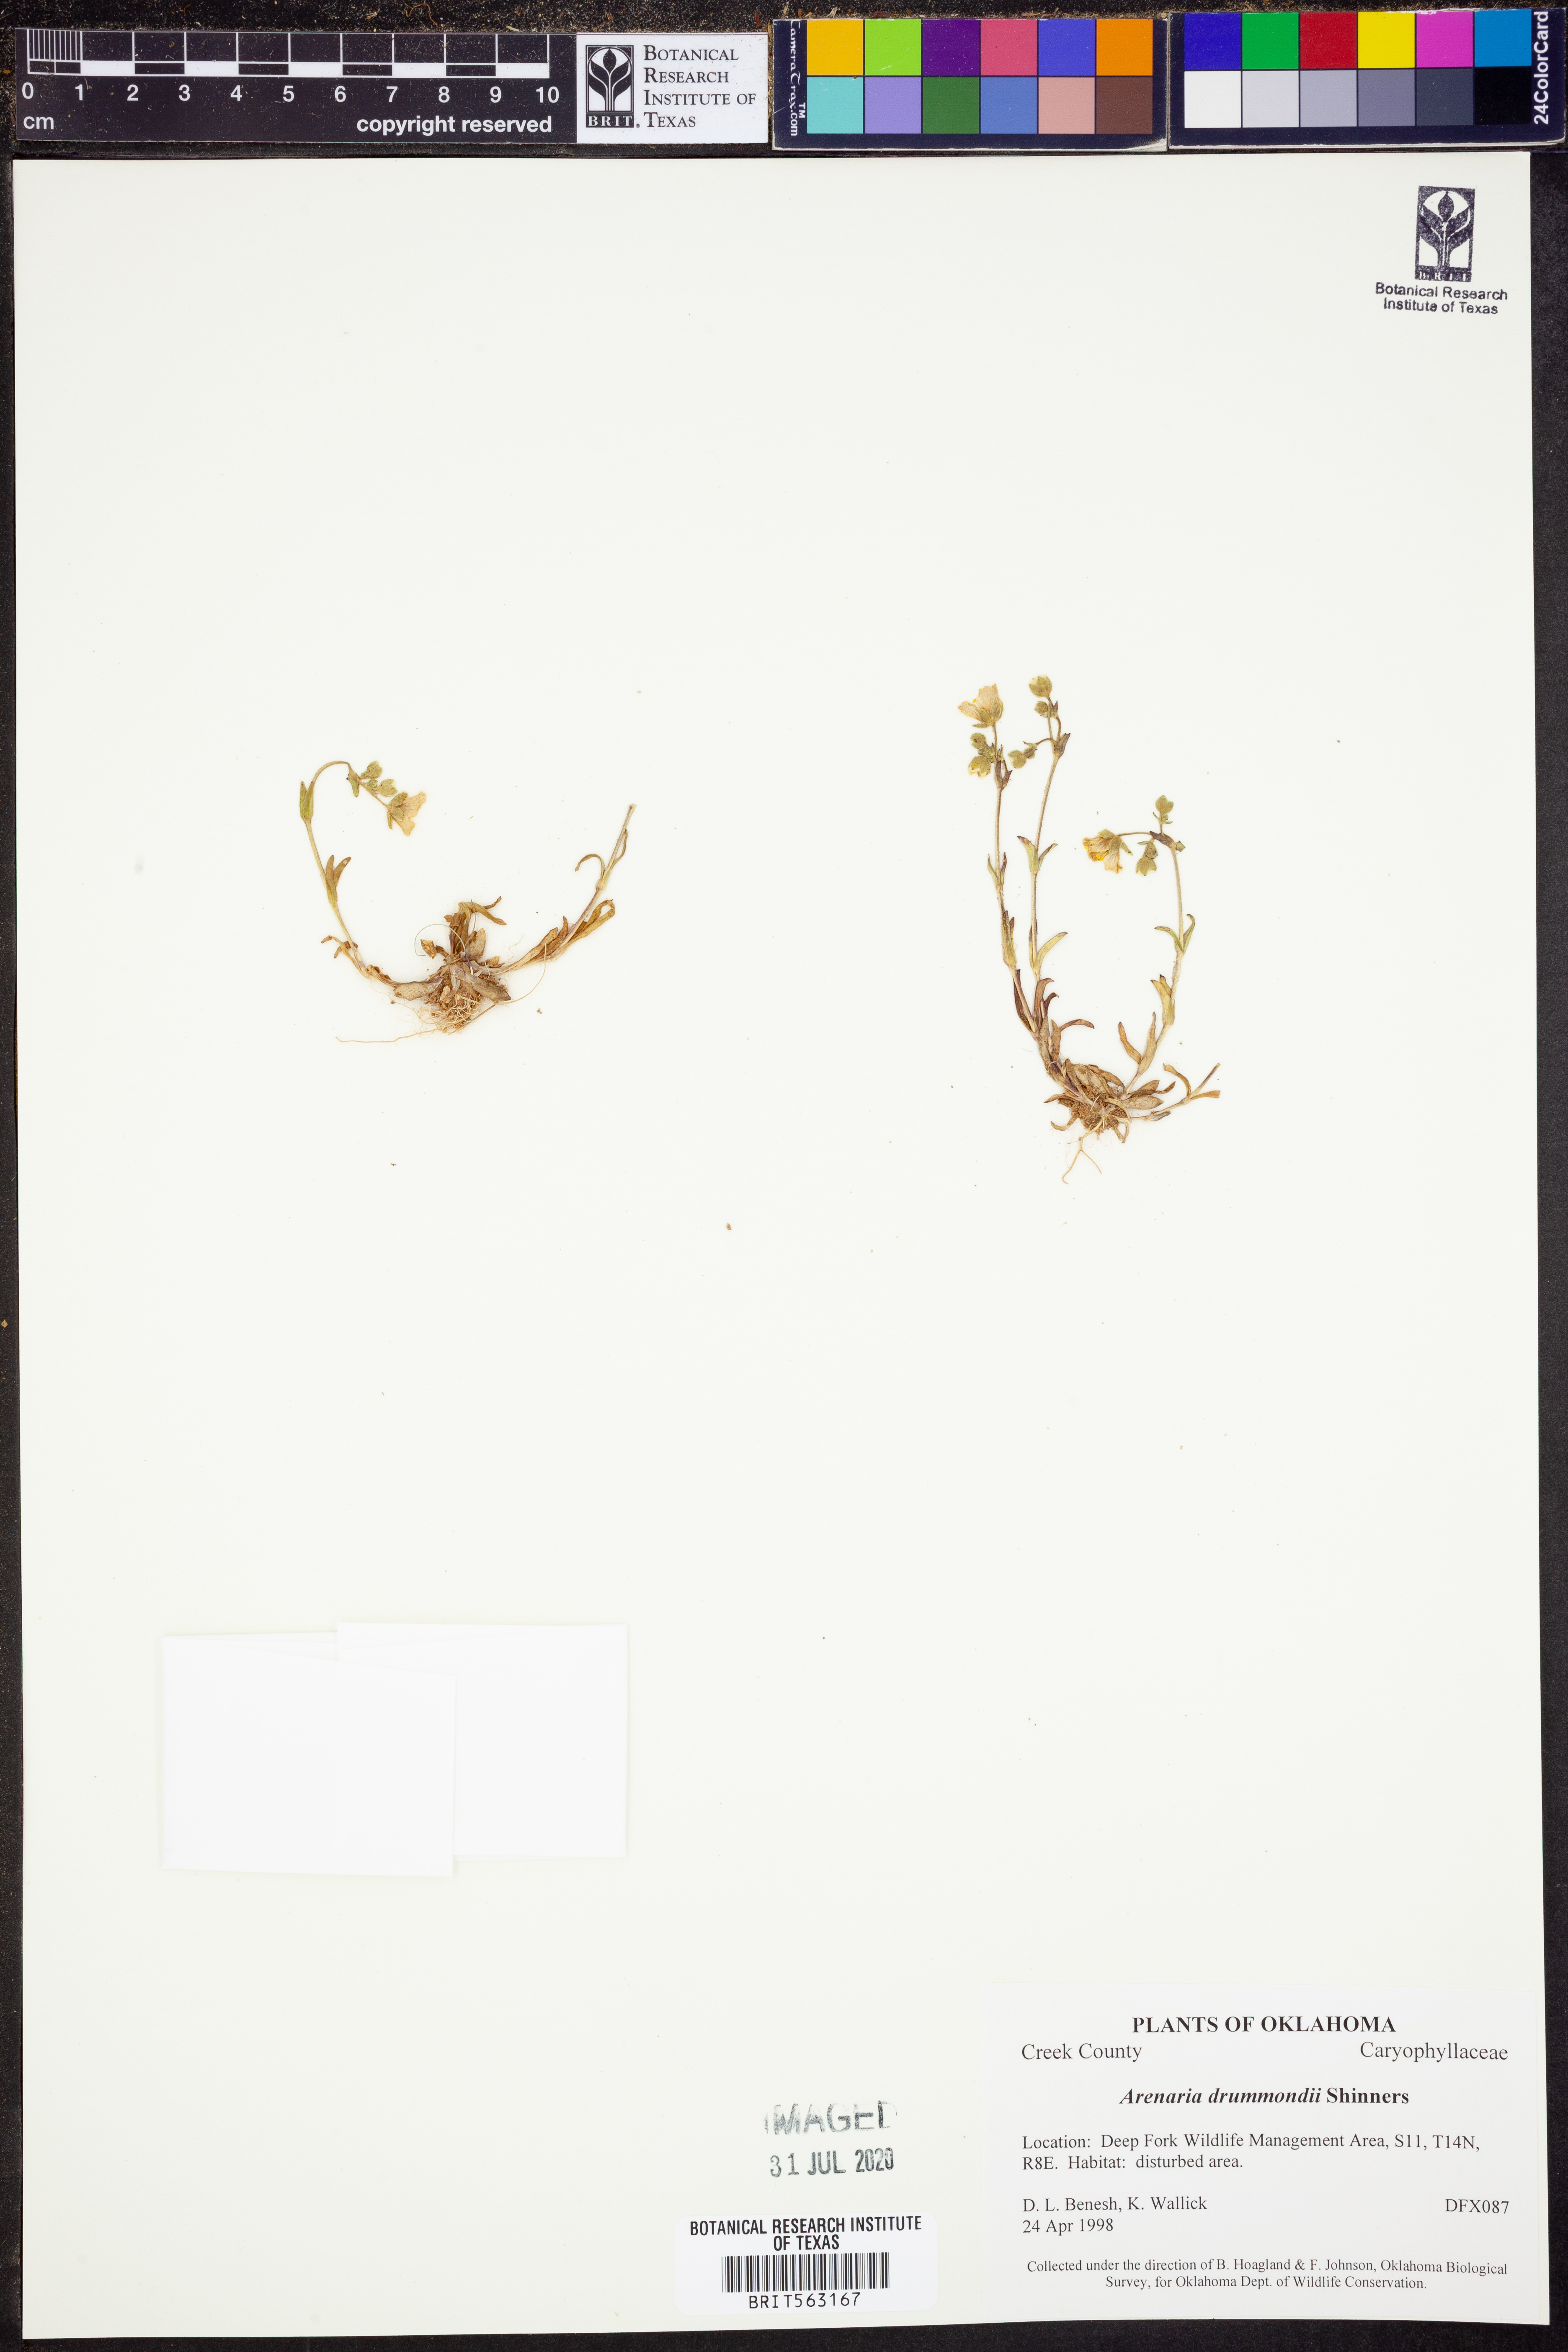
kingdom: Plantae
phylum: Tracheophyta
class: Magnoliopsida
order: Caryophyllales
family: Caryophyllaceae
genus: Geocarpon
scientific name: Geocarpon nuttallii
